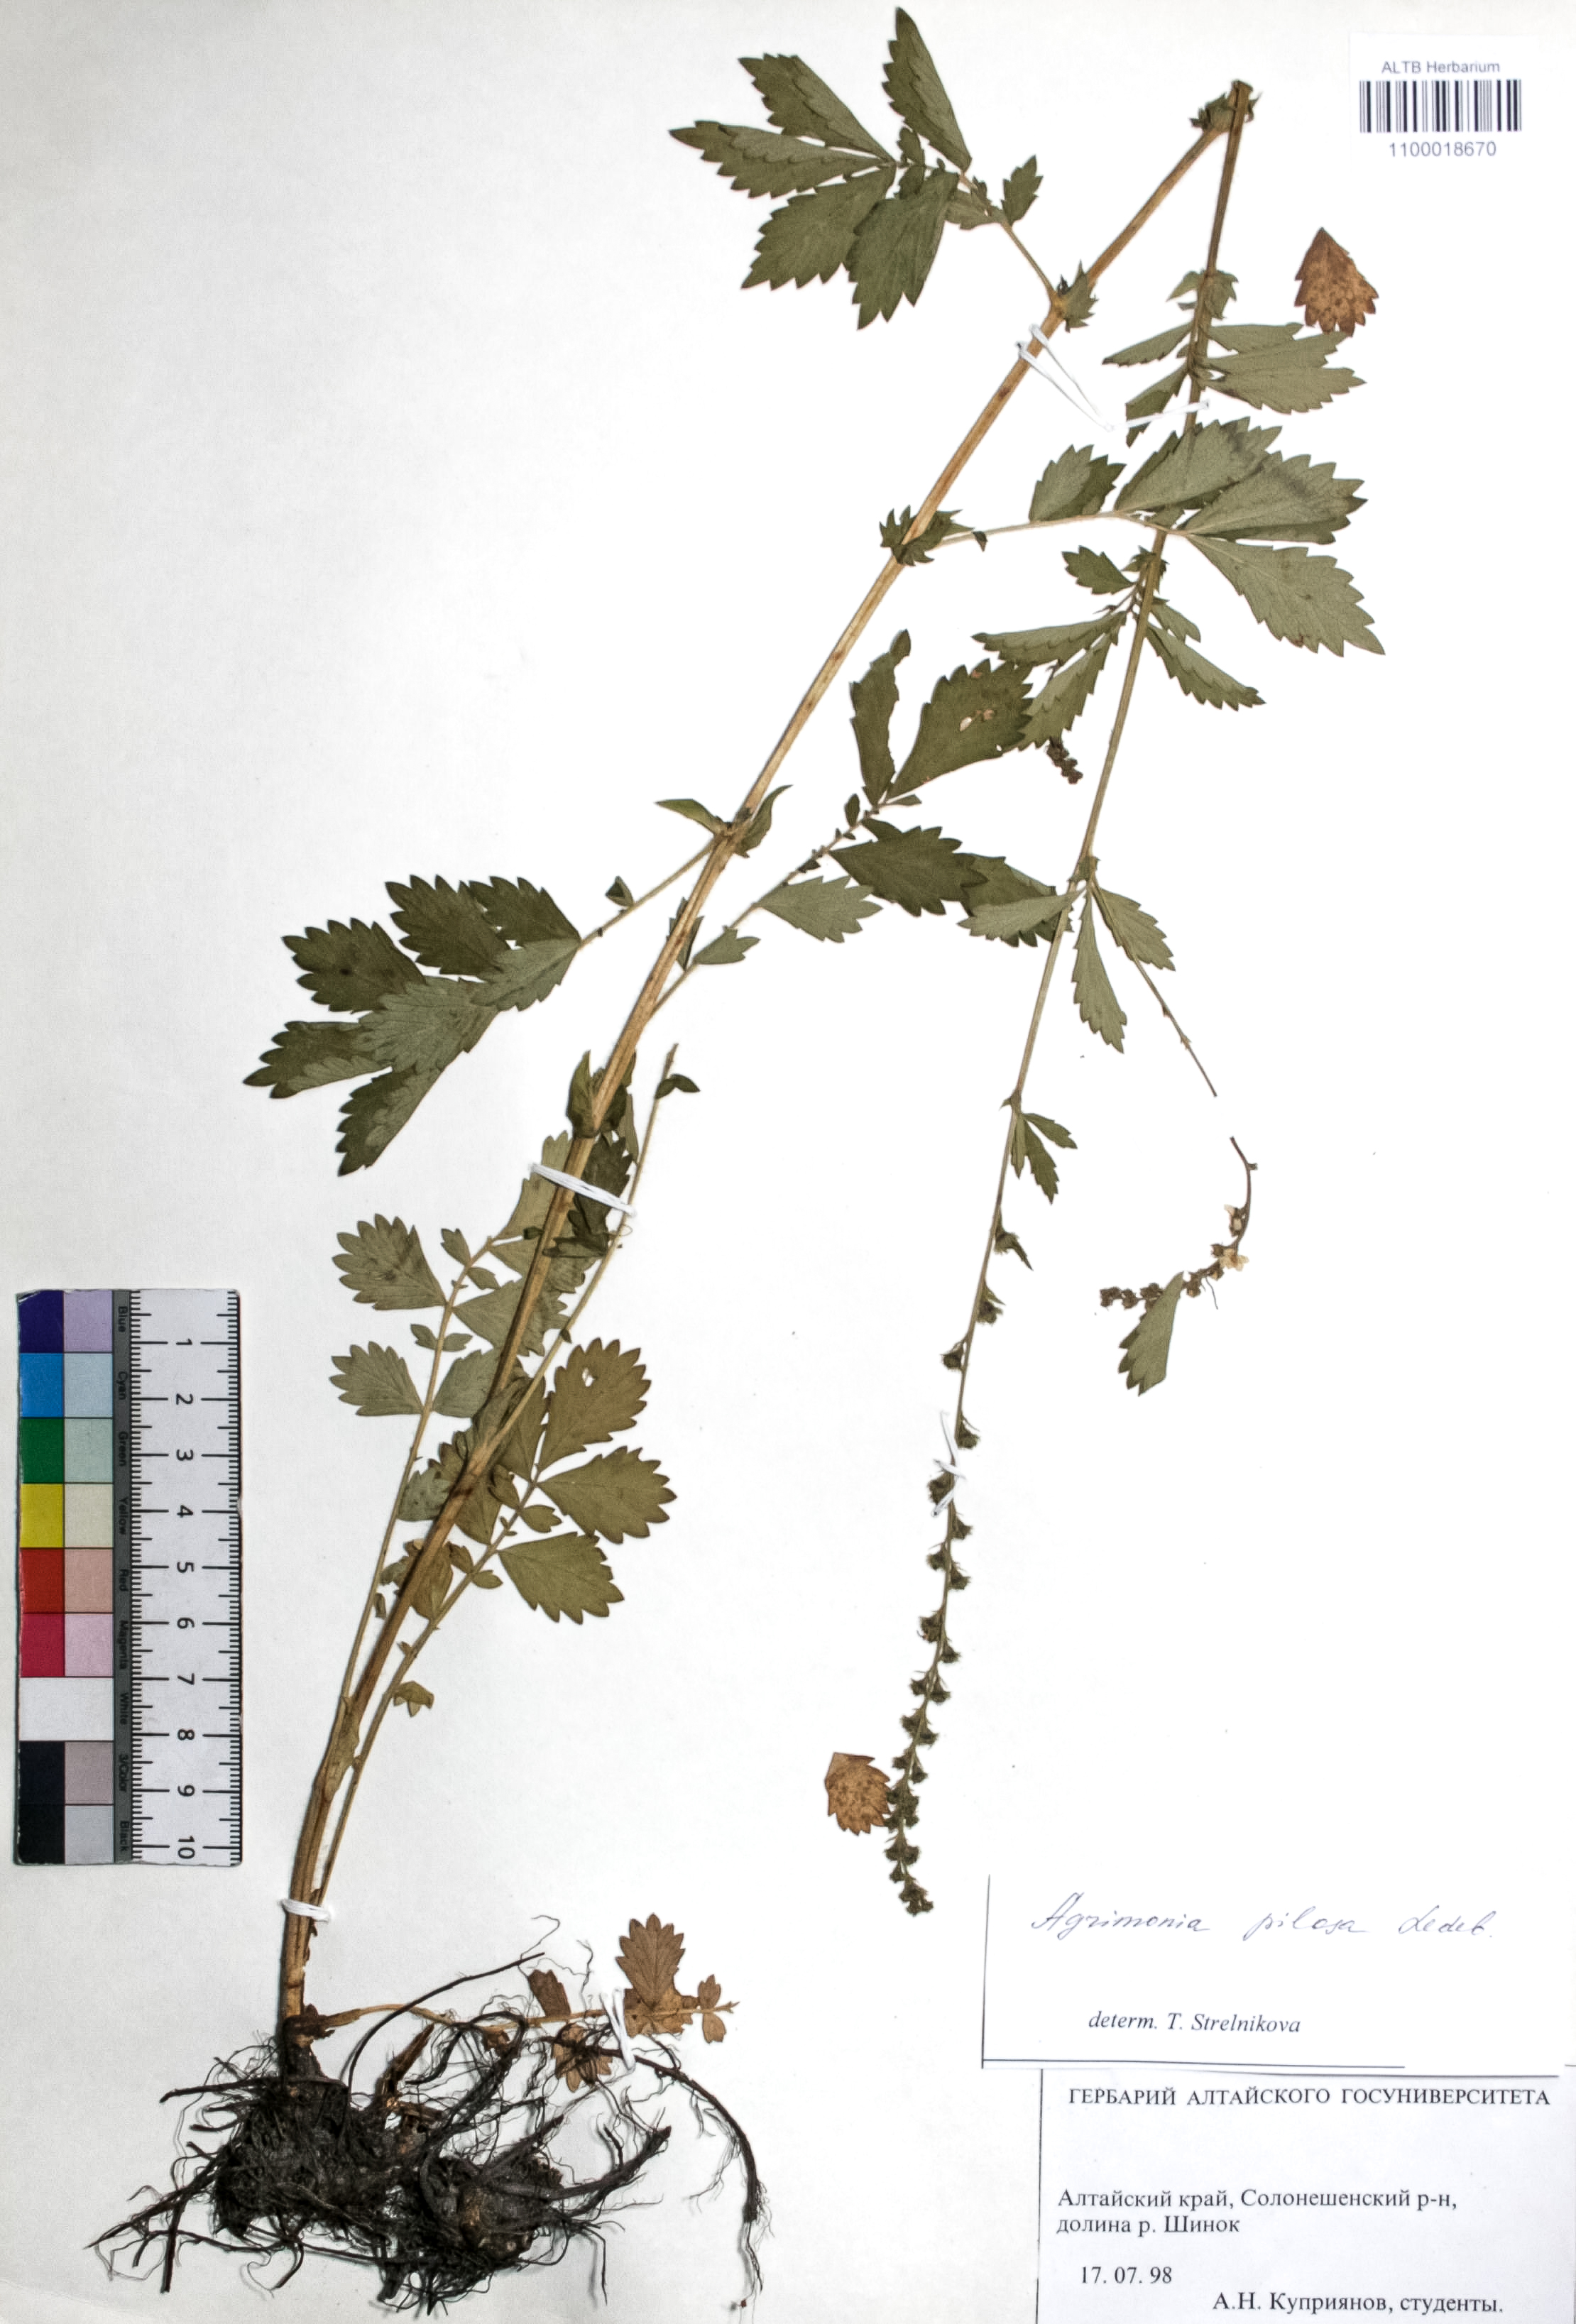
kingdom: Plantae
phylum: Tracheophyta
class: Magnoliopsida
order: Rosales
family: Rosaceae
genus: Agrimonia
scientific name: Agrimonia pilosa
